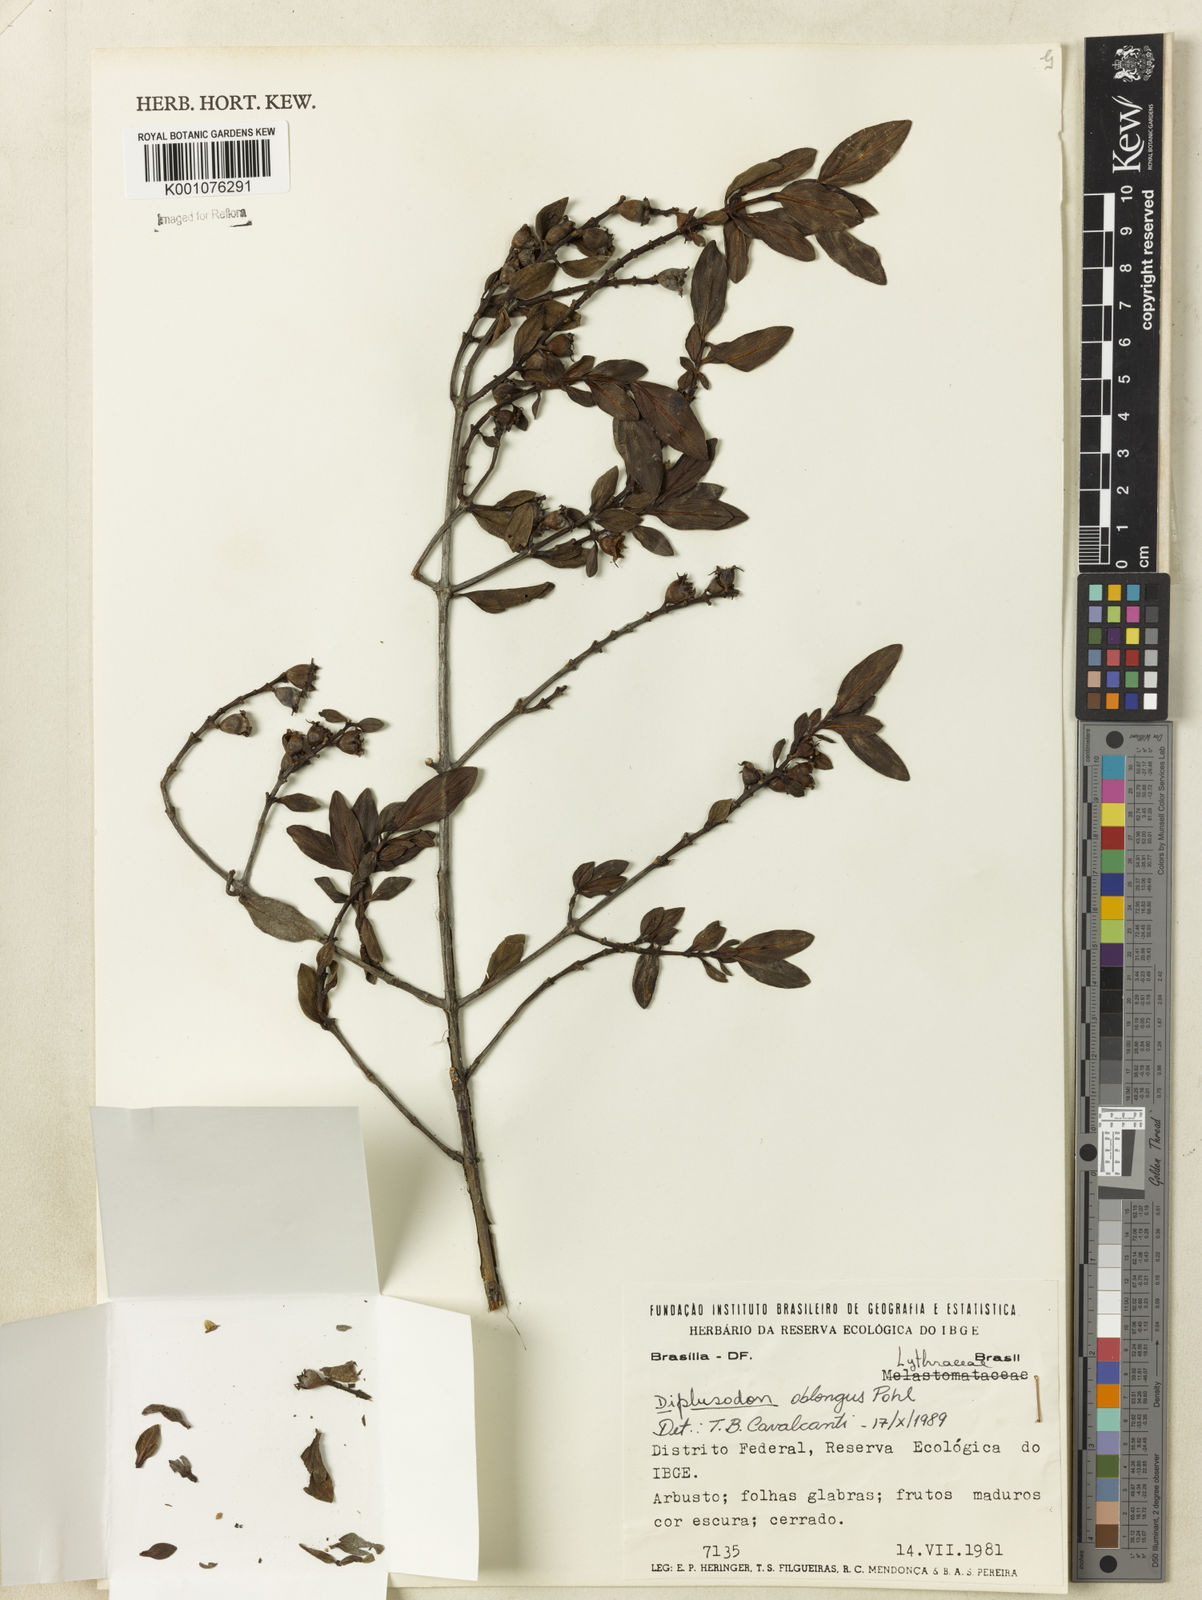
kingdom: Plantae
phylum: Tracheophyta
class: Magnoliopsida
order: Myrtales
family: Lythraceae
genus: Diplusodon
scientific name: Diplusodon oblongus
